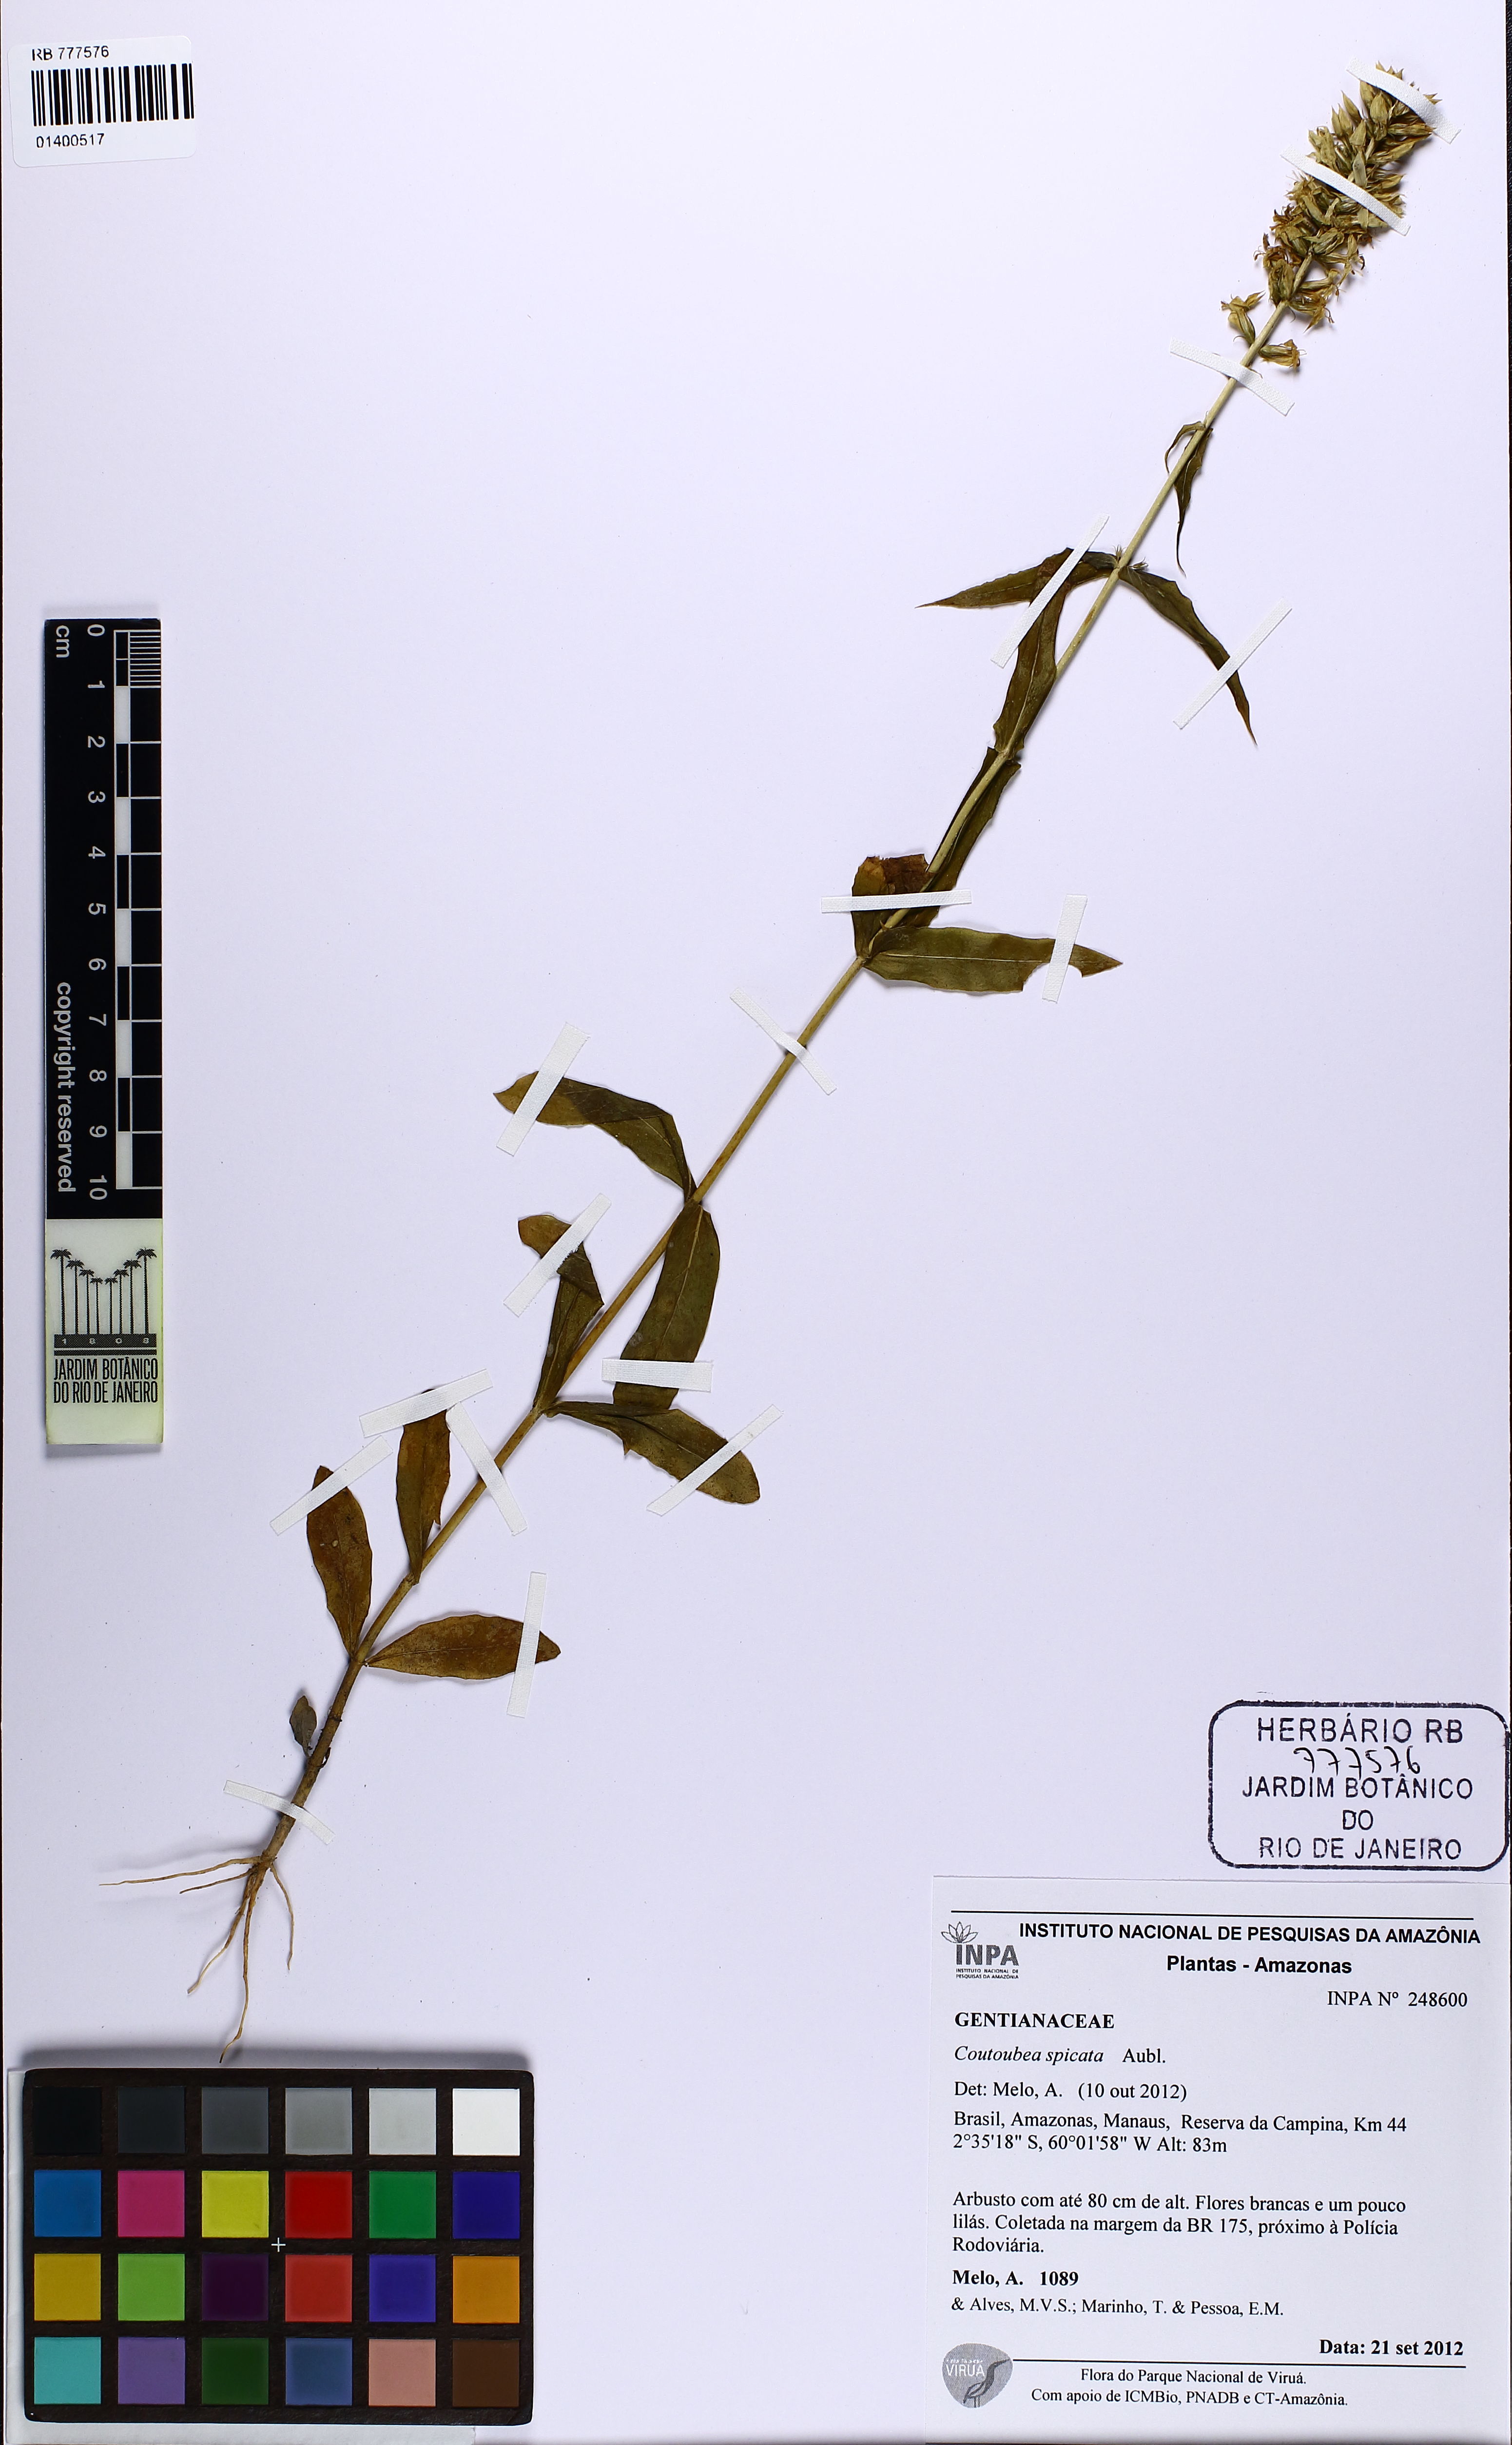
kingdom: Plantae
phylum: Tracheophyta
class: Magnoliopsida
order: Gentianales
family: Gentianaceae
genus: Coutoubea
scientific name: Coutoubea spicata
